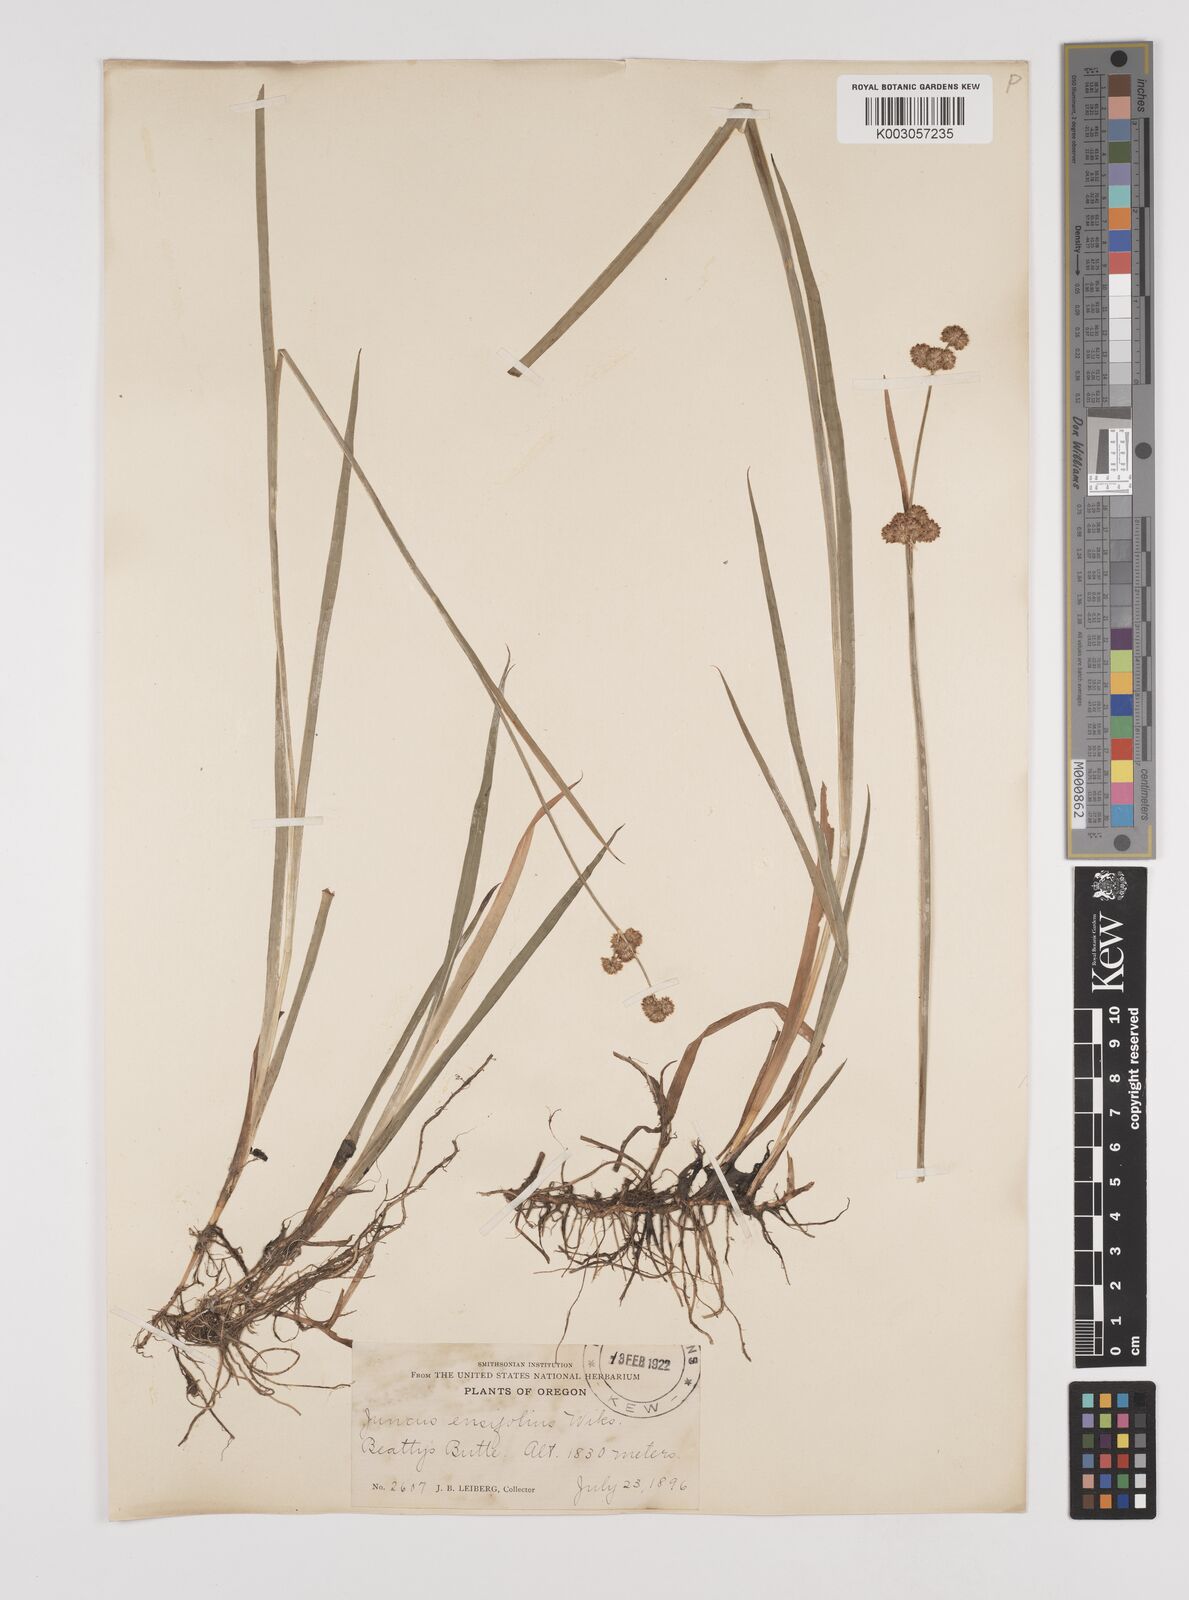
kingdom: Plantae
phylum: Tracheophyta
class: Liliopsida
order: Poales
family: Juncaceae
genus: Juncus
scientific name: Juncus ensifolius
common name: Sword-leaved rush
